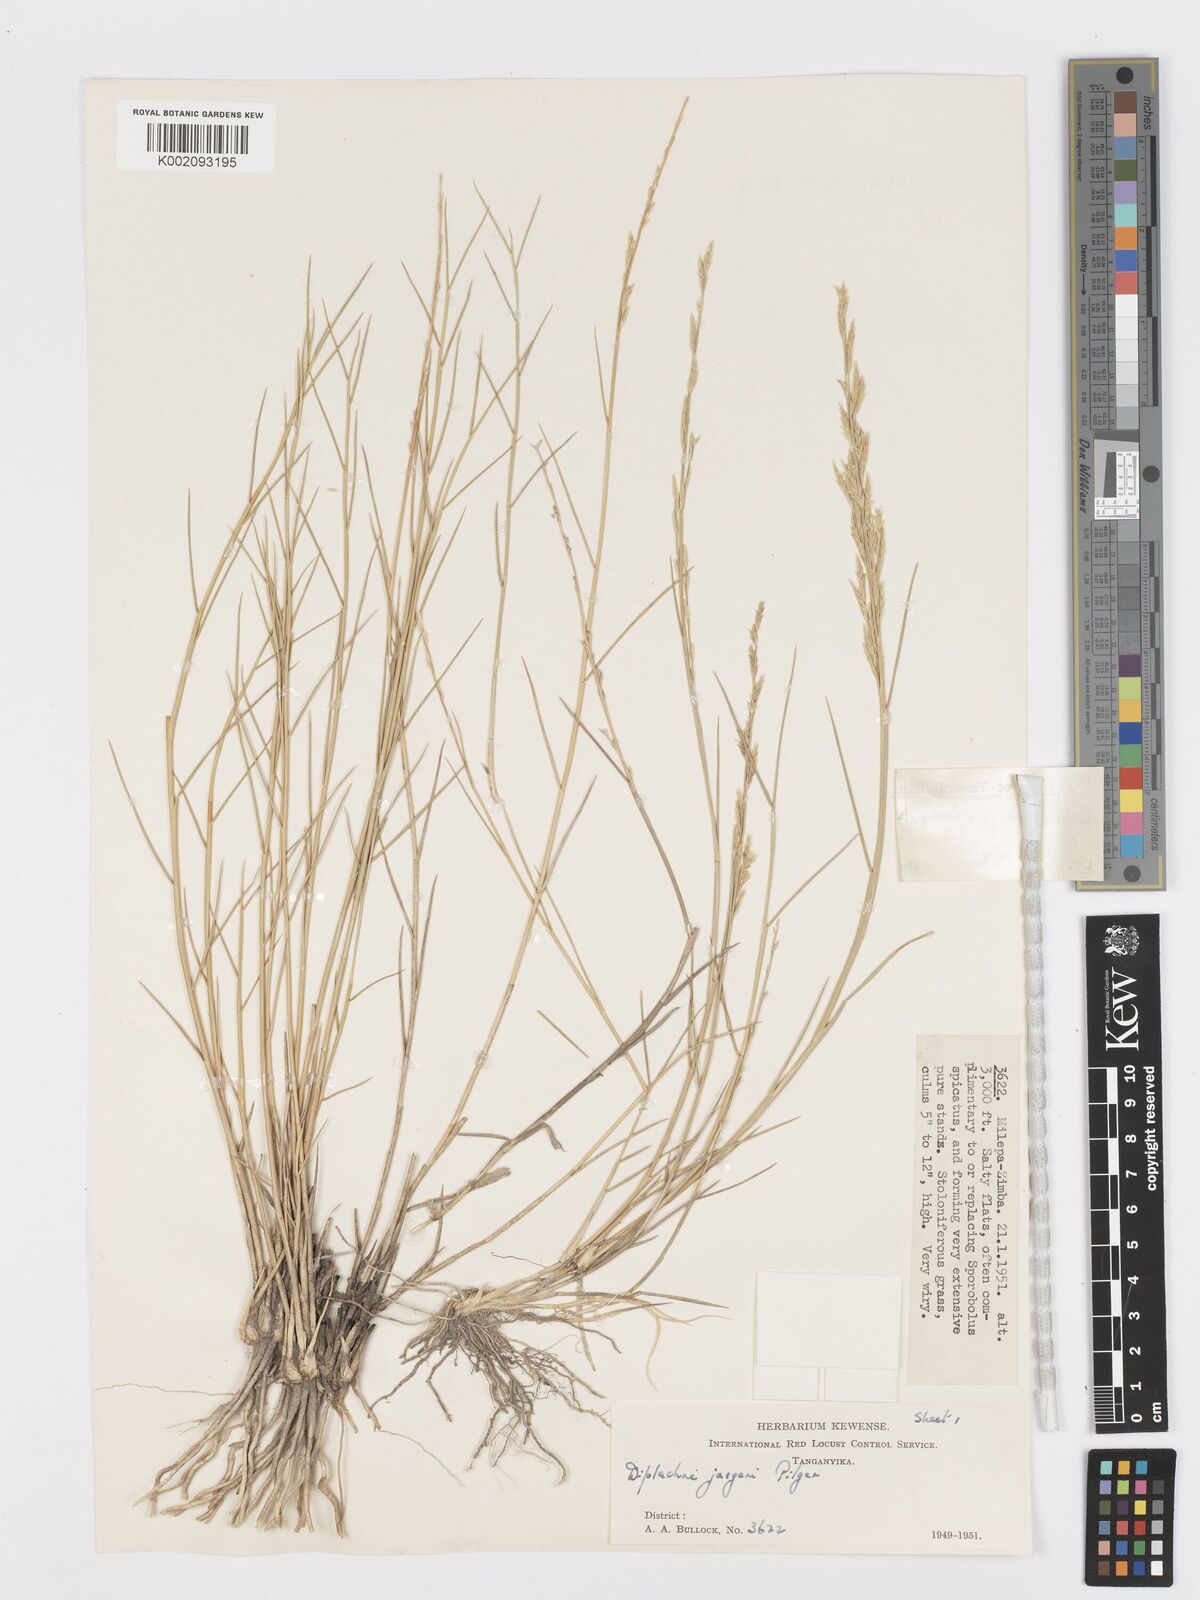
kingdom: Plantae
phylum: Tracheophyta
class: Liliopsida
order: Poales
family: Poaceae
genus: Psilolemma
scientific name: Psilolemma jaegeri
